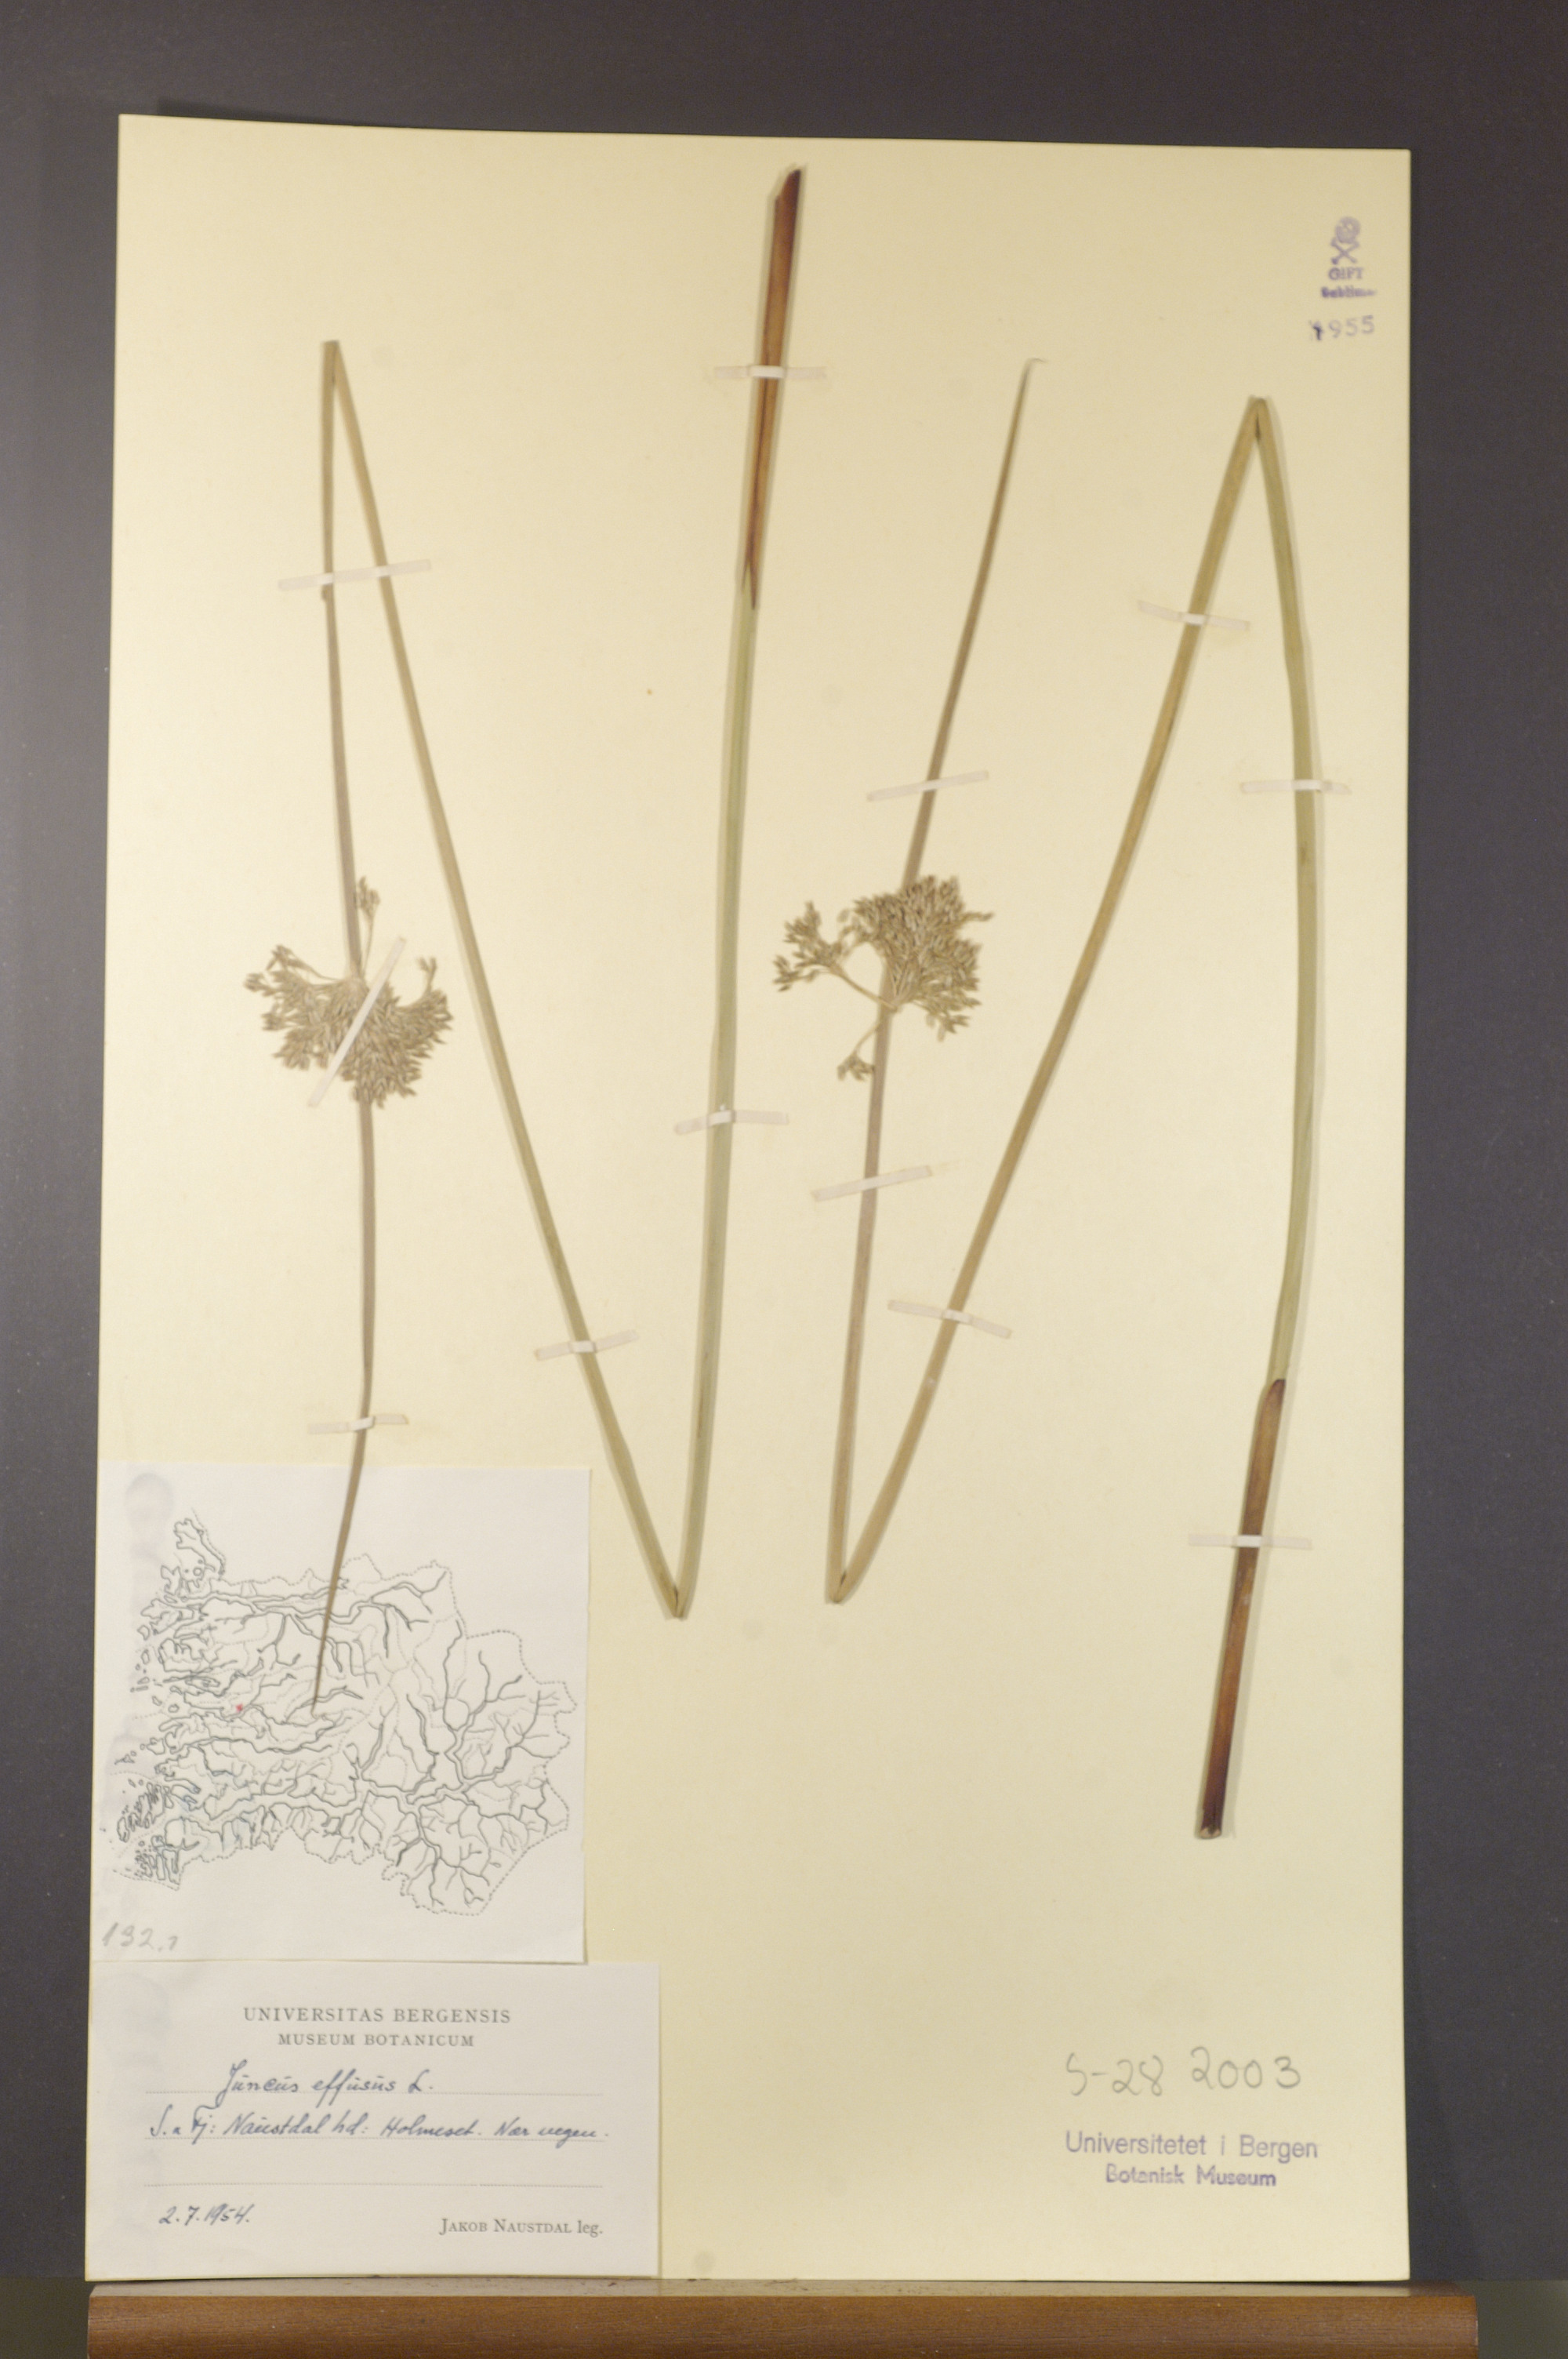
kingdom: Plantae
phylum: Tracheophyta
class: Liliopsida
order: Poales
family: Juncaceae
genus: Juncus
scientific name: Juncus effusus
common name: Soft rush
